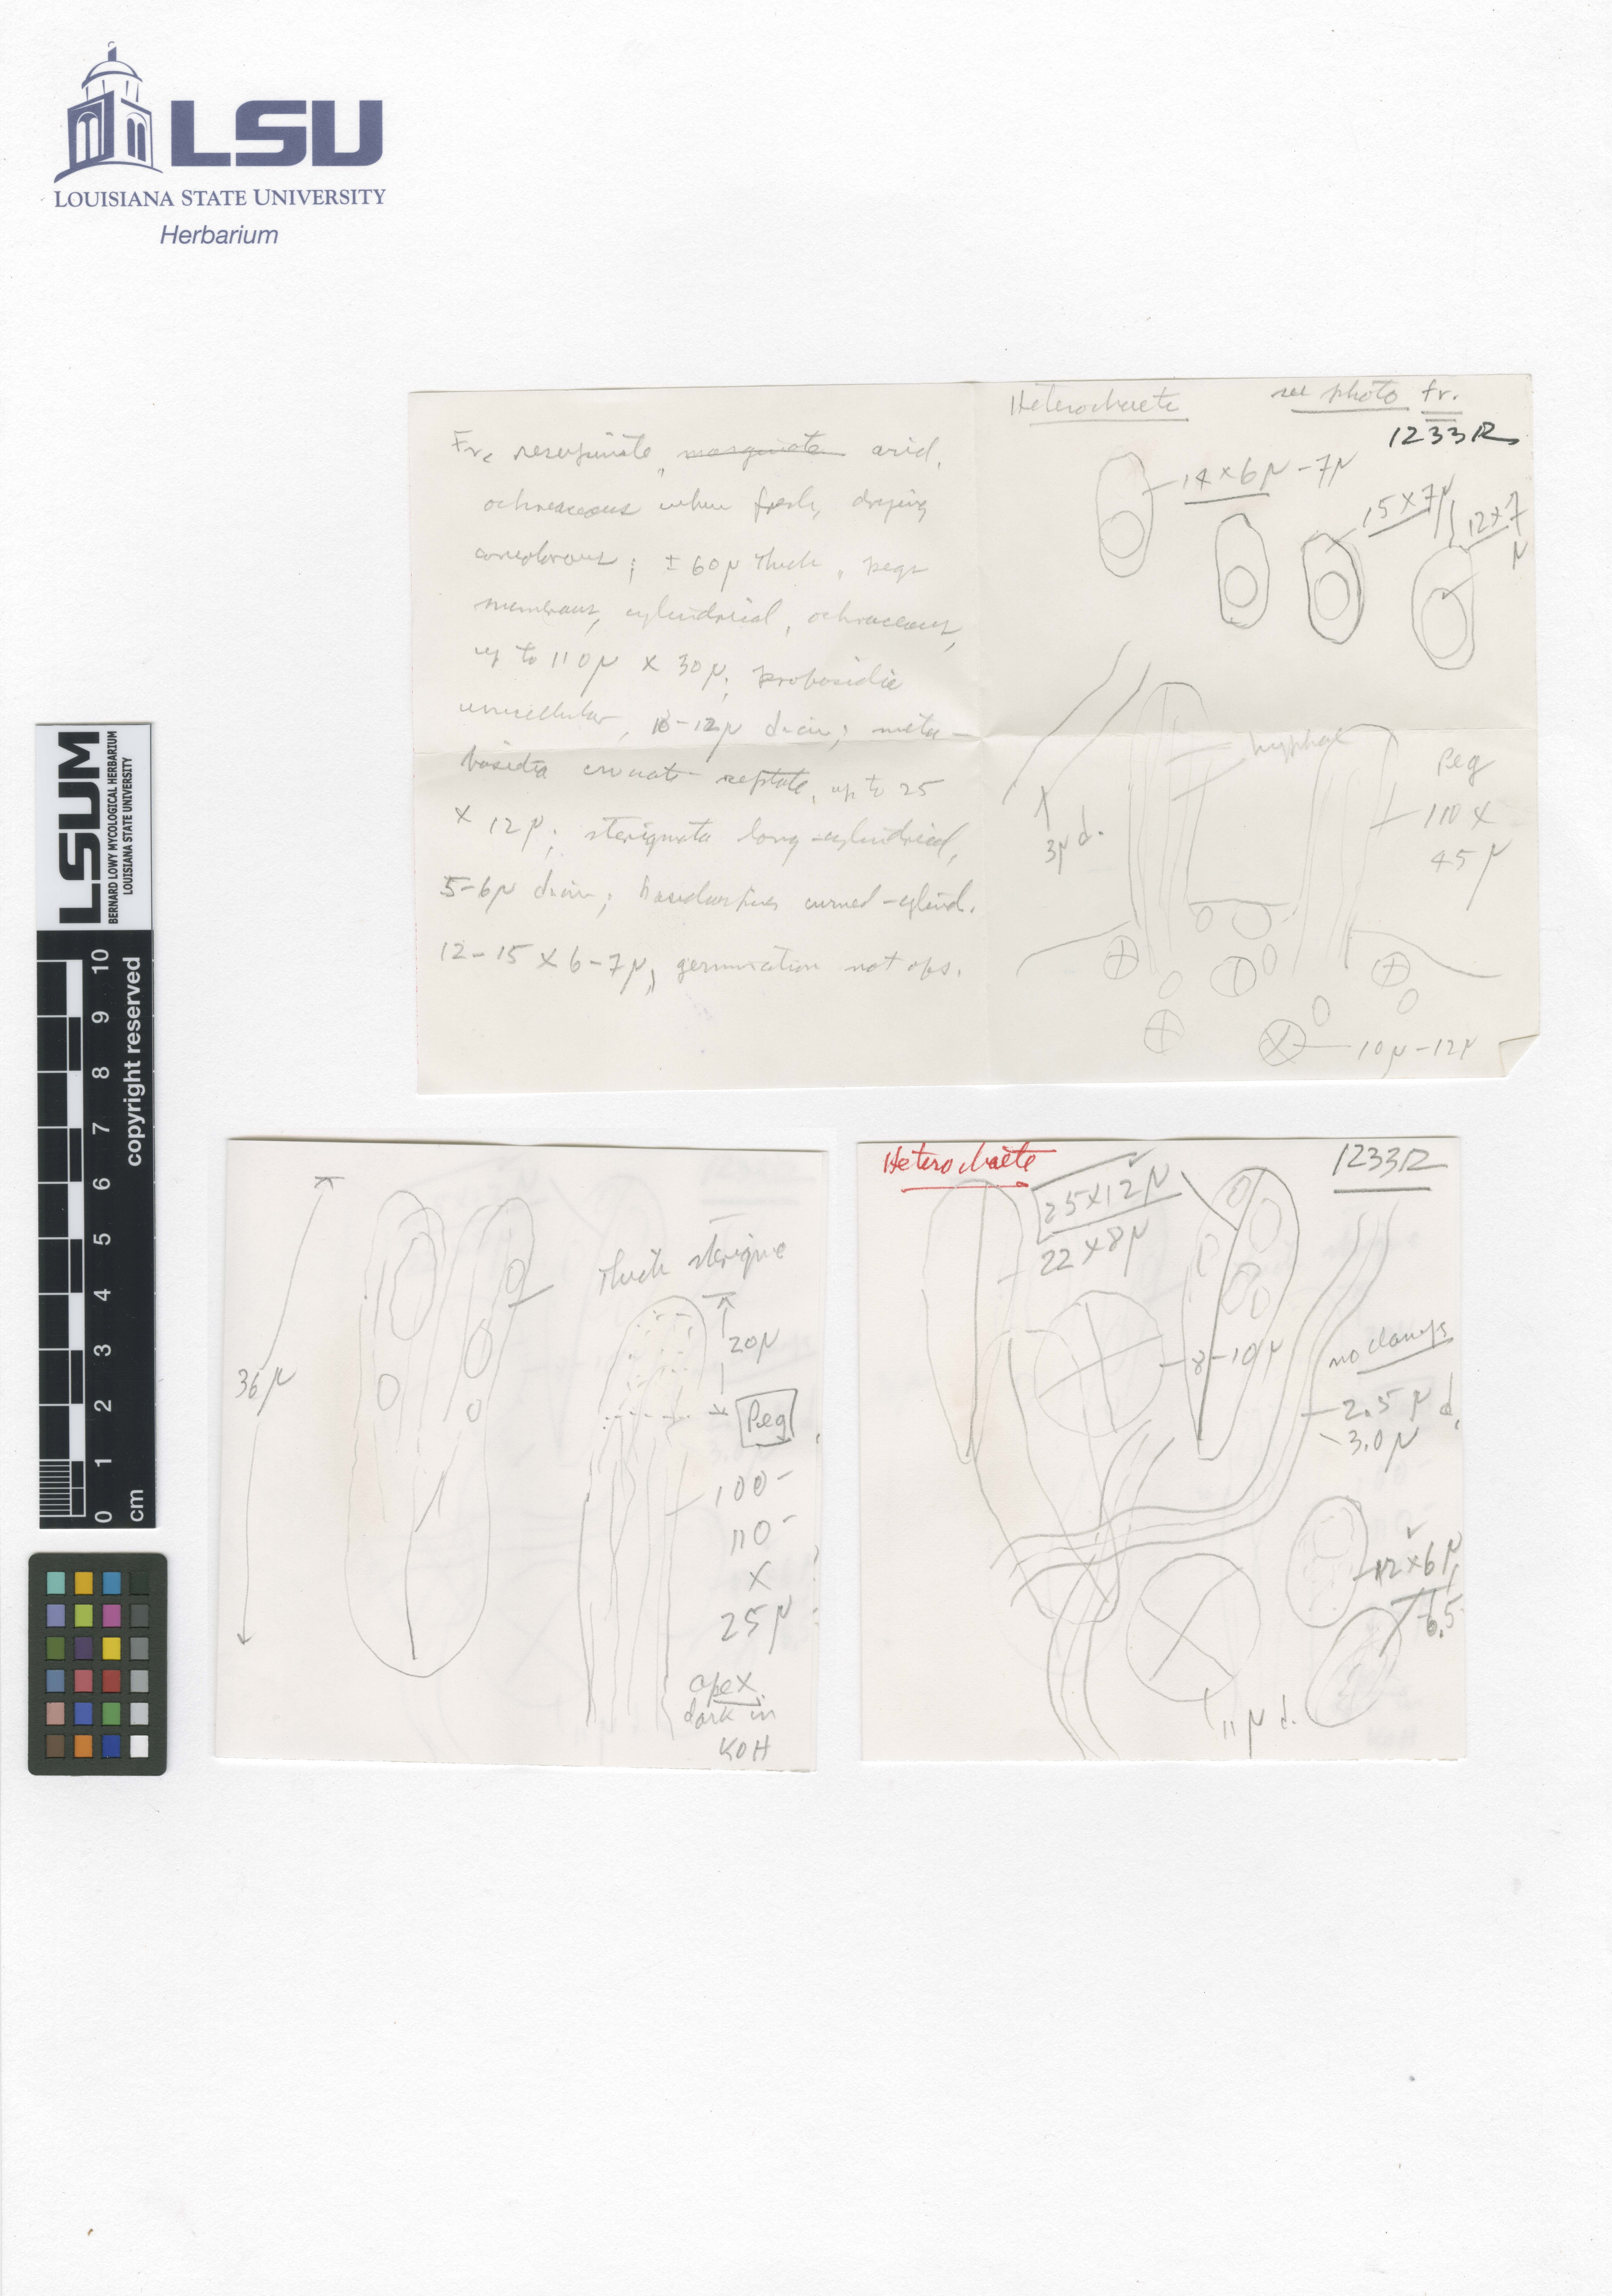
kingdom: Fungi
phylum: Basidiomycota
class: Agaricomycetes
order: Auriculariales
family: Auriculariaceae
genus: Heterochaete
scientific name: Heterochaete bodmanii
